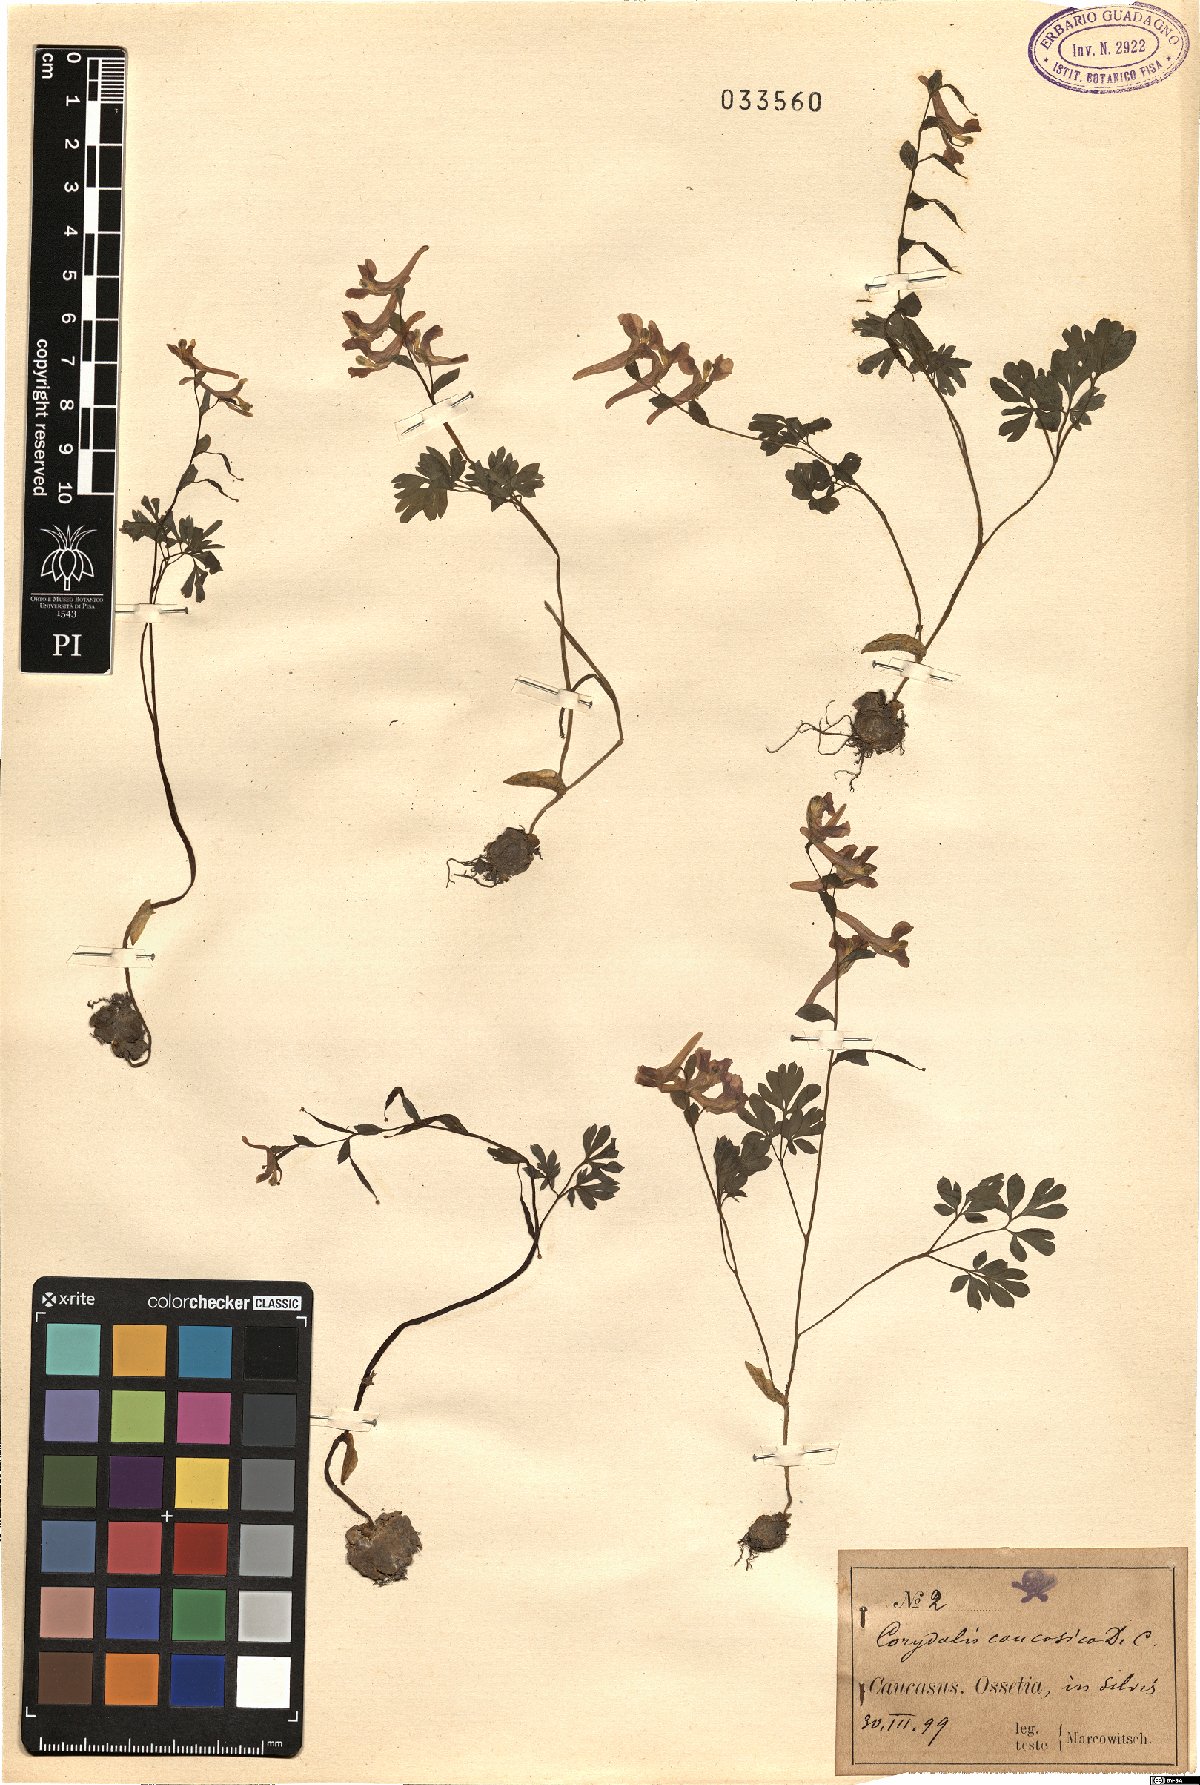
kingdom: Plantae
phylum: Tracheophyta
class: Magnoliopsida
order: Ranunculales
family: Papaveraceae
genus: Corydalis
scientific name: Corydalis caucasica
